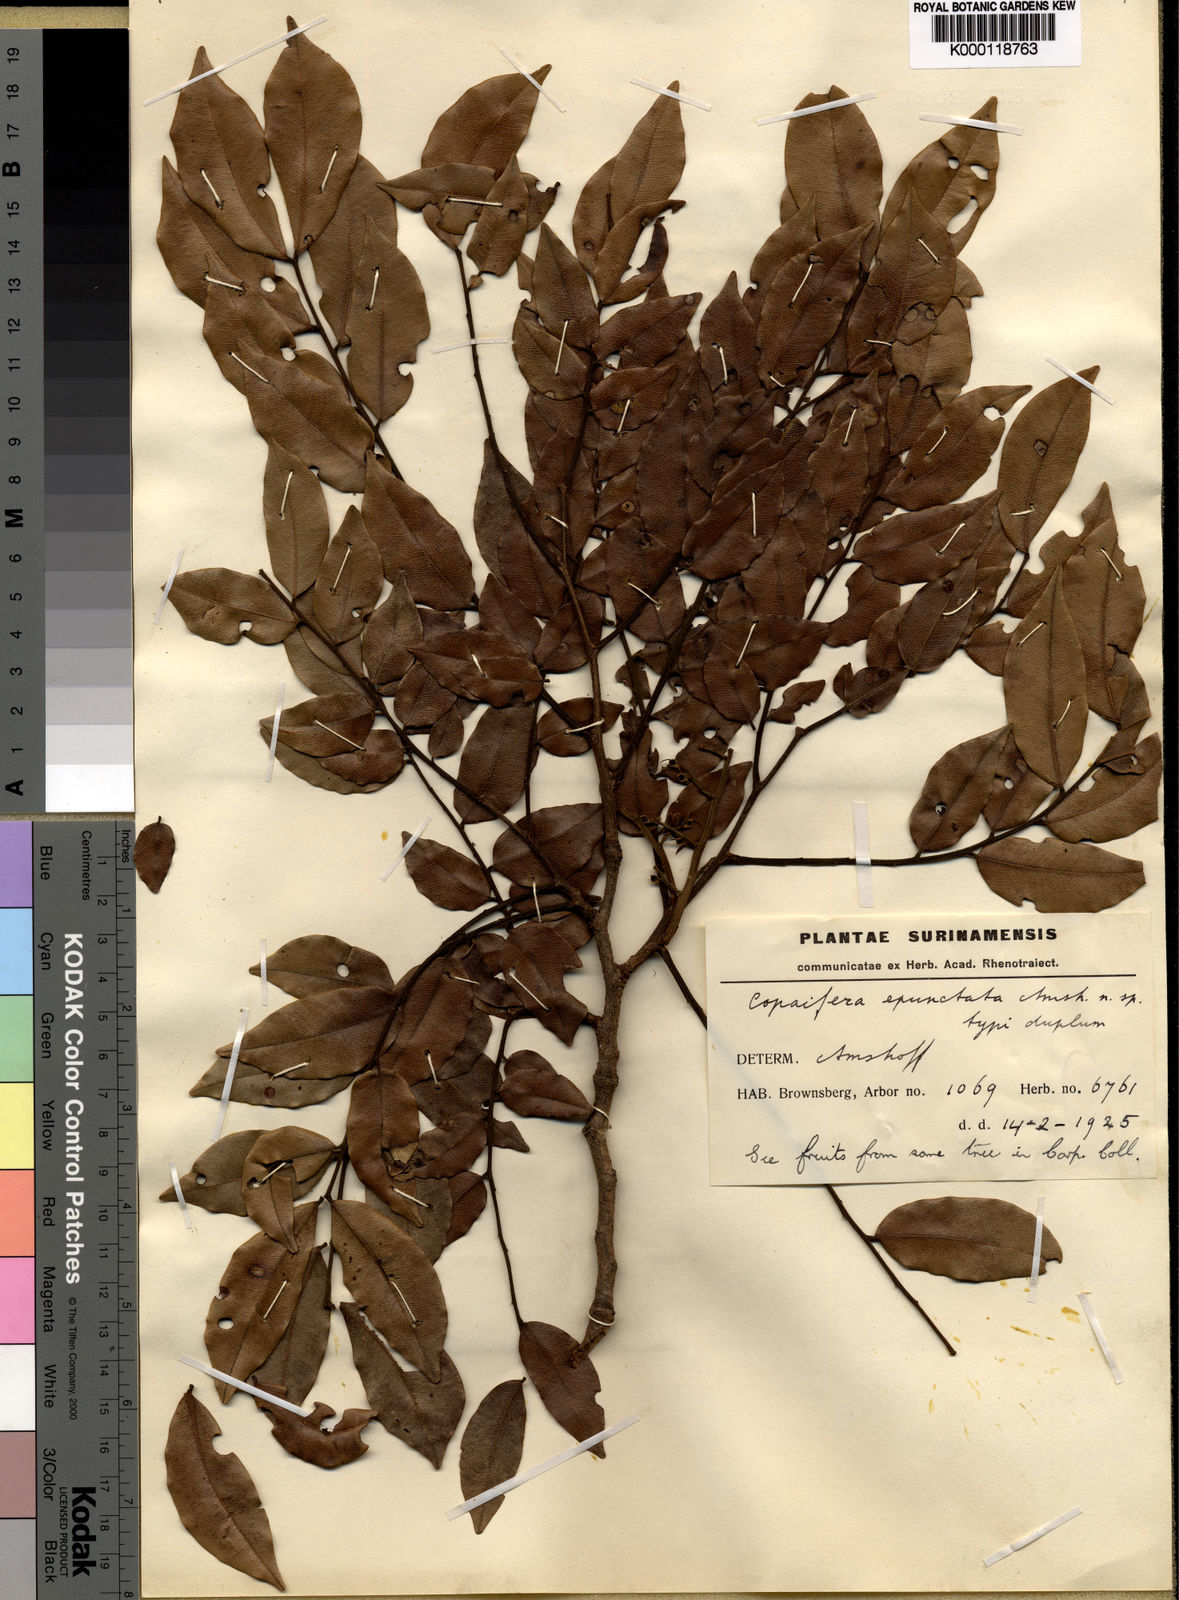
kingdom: Plantae
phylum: Tracheophyta
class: Magnoliopsida
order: Fabales
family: Fabaceae
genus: Copaifera
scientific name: Copaifera epunctata
